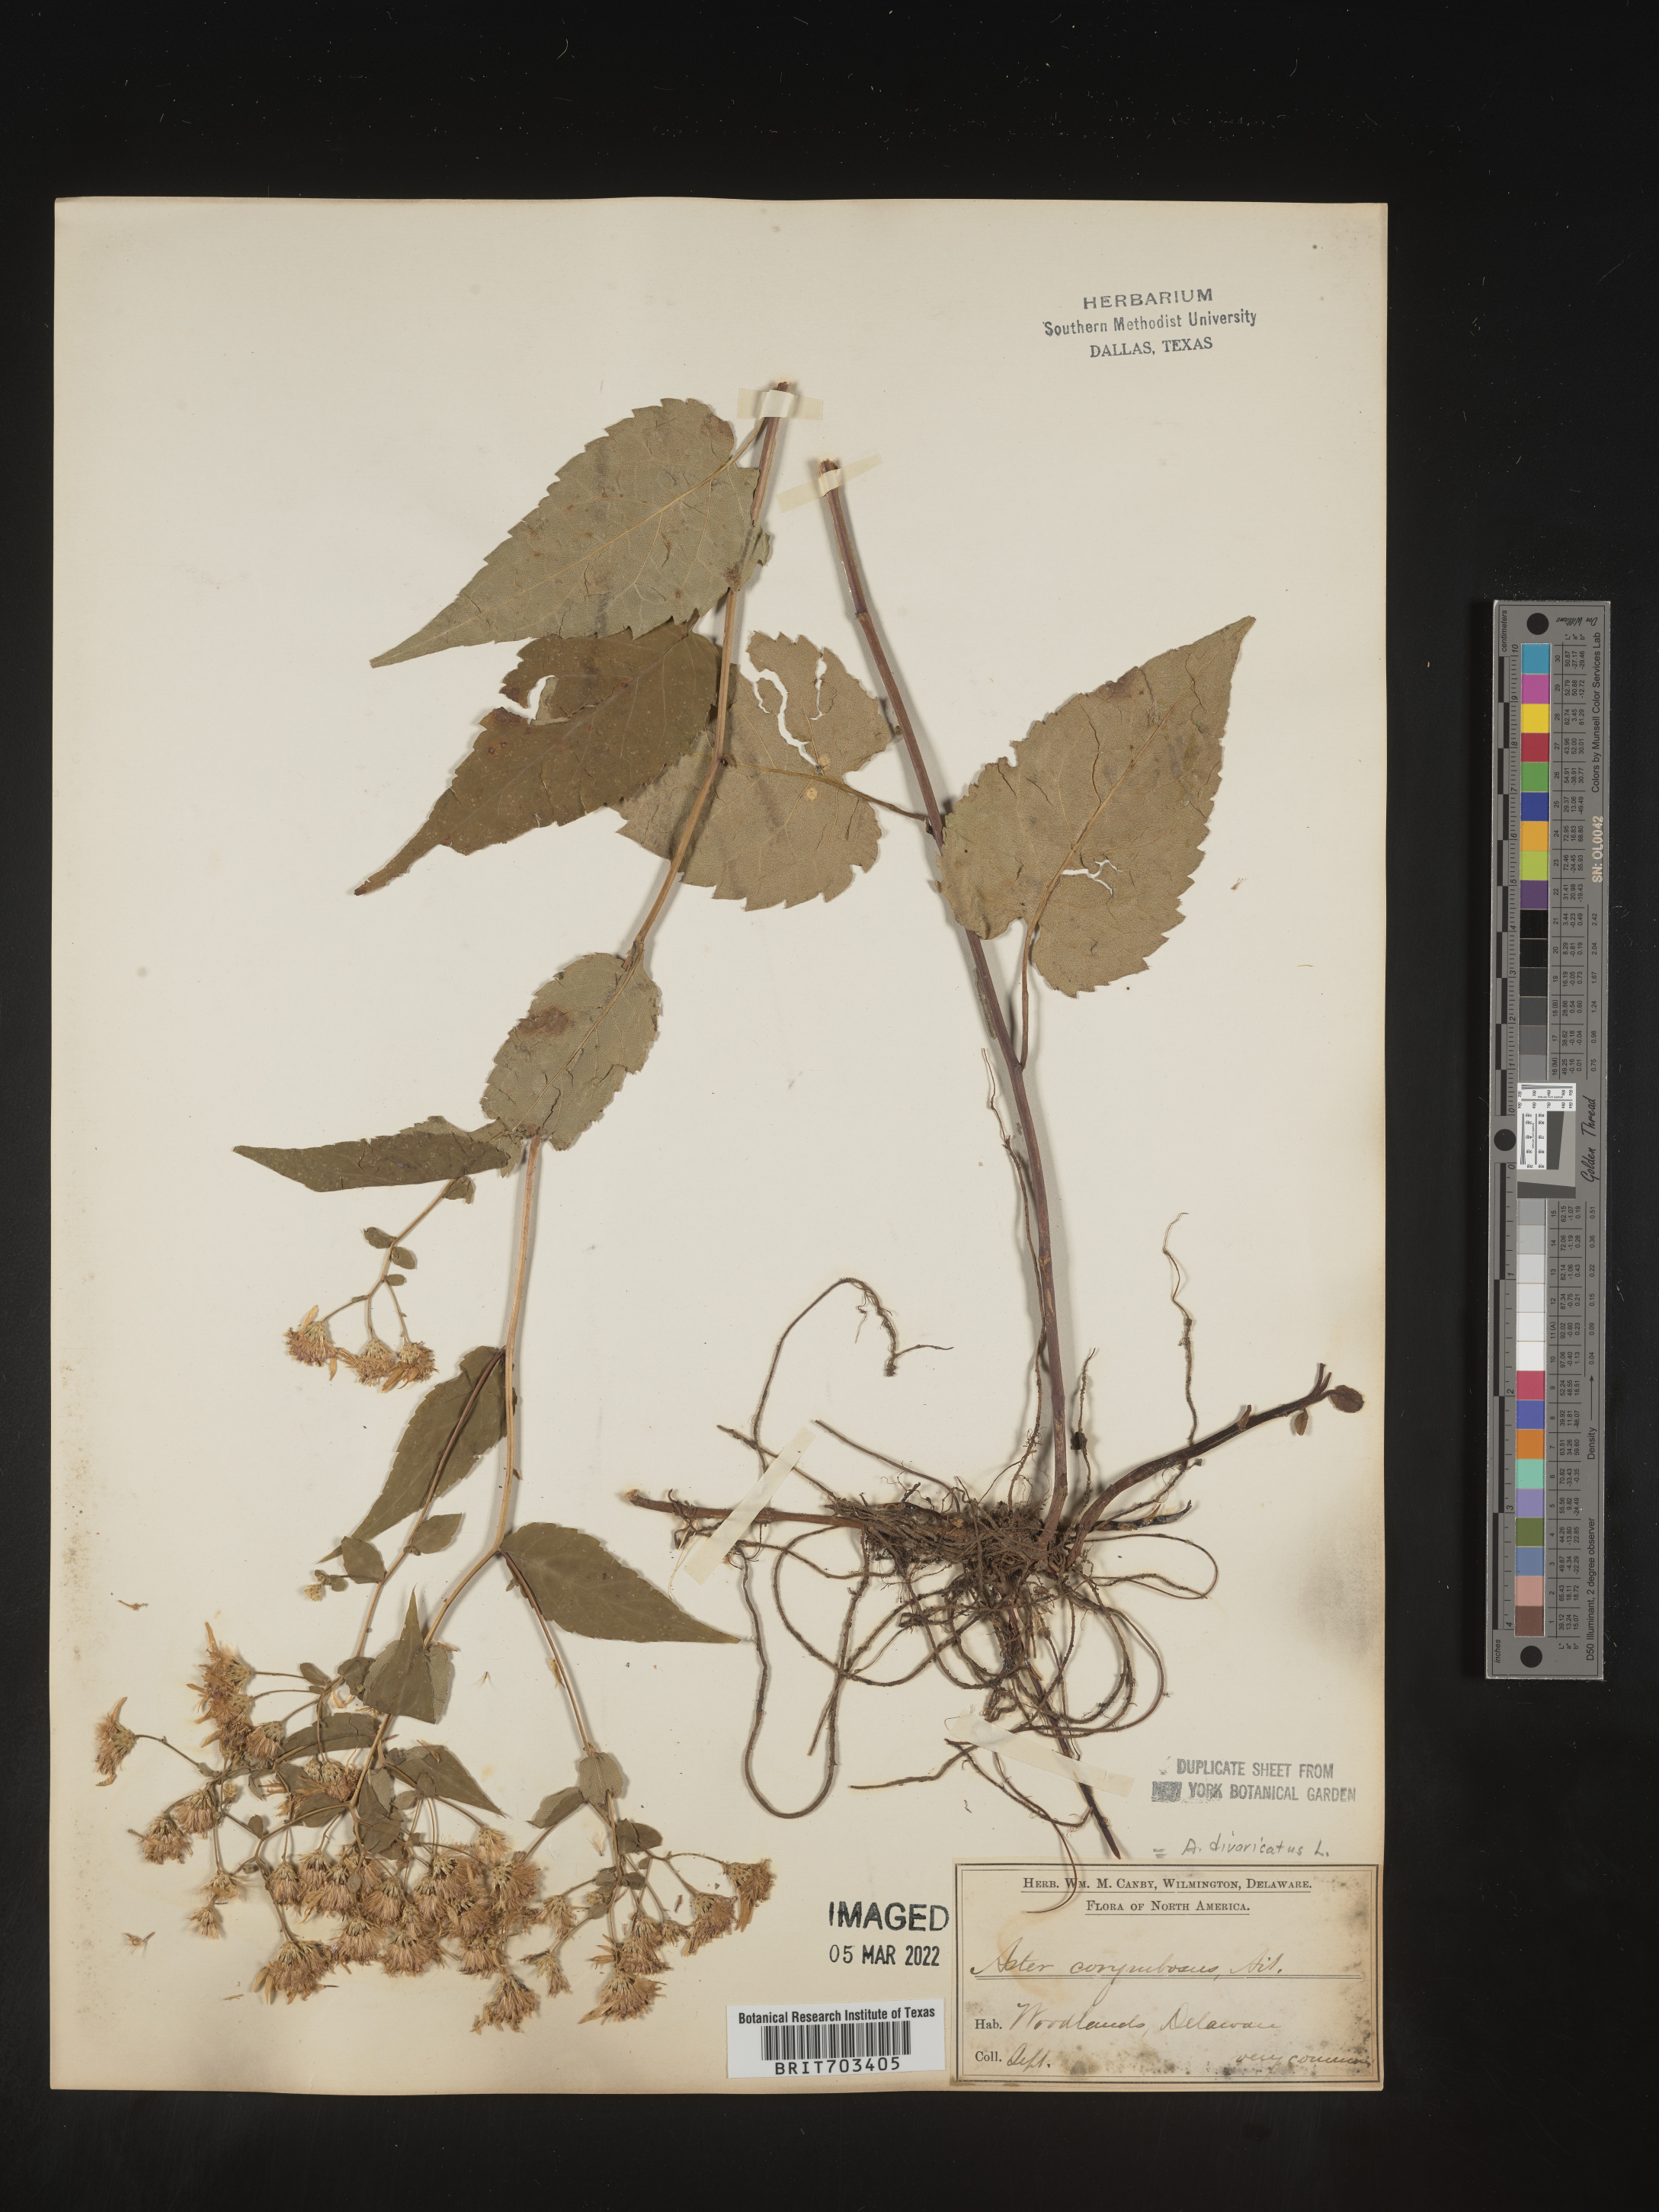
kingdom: Plantae
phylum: Tracheophyta
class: Magnoliopsida
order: Asterales
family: Asteraceae
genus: Eurybia
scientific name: Eurybia divaricata
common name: White wood aster
